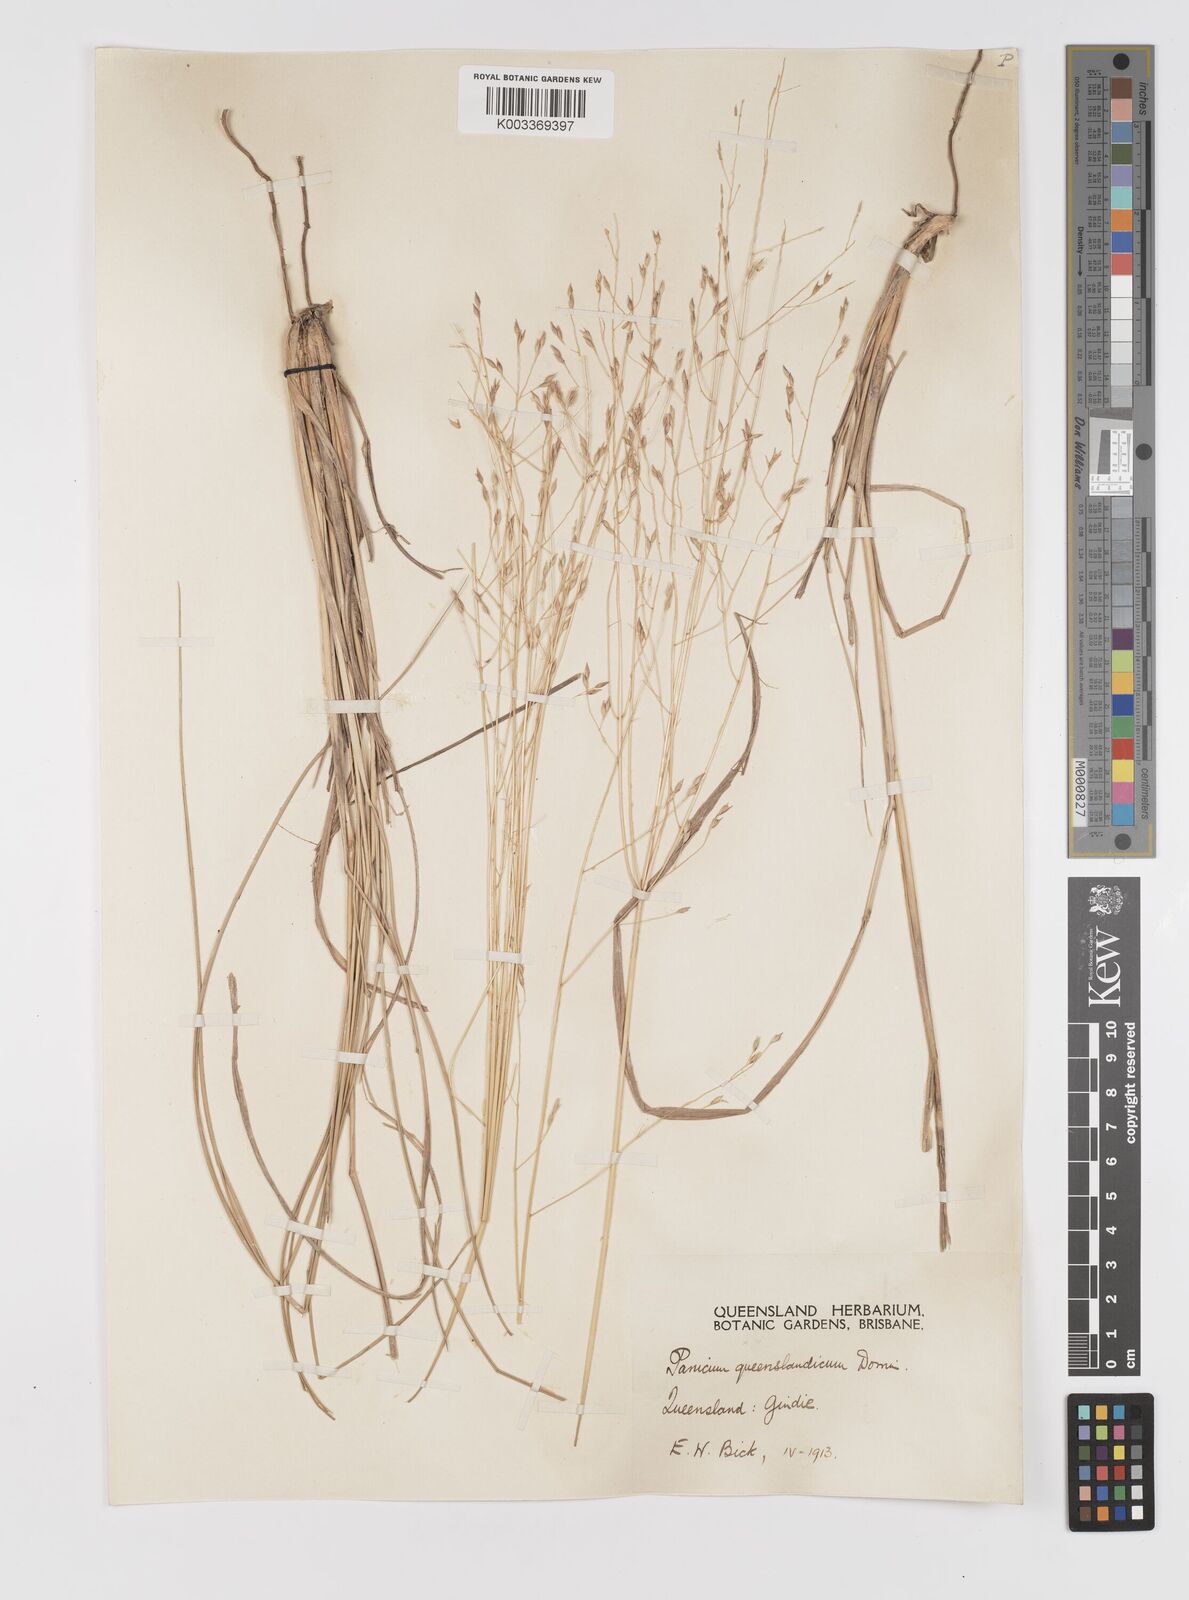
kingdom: Plantae
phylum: Tracheophyta
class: Liliopsida
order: Poales
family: Poaceae
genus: Panicum
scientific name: Panicum queenslandicum
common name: Yabila grass
